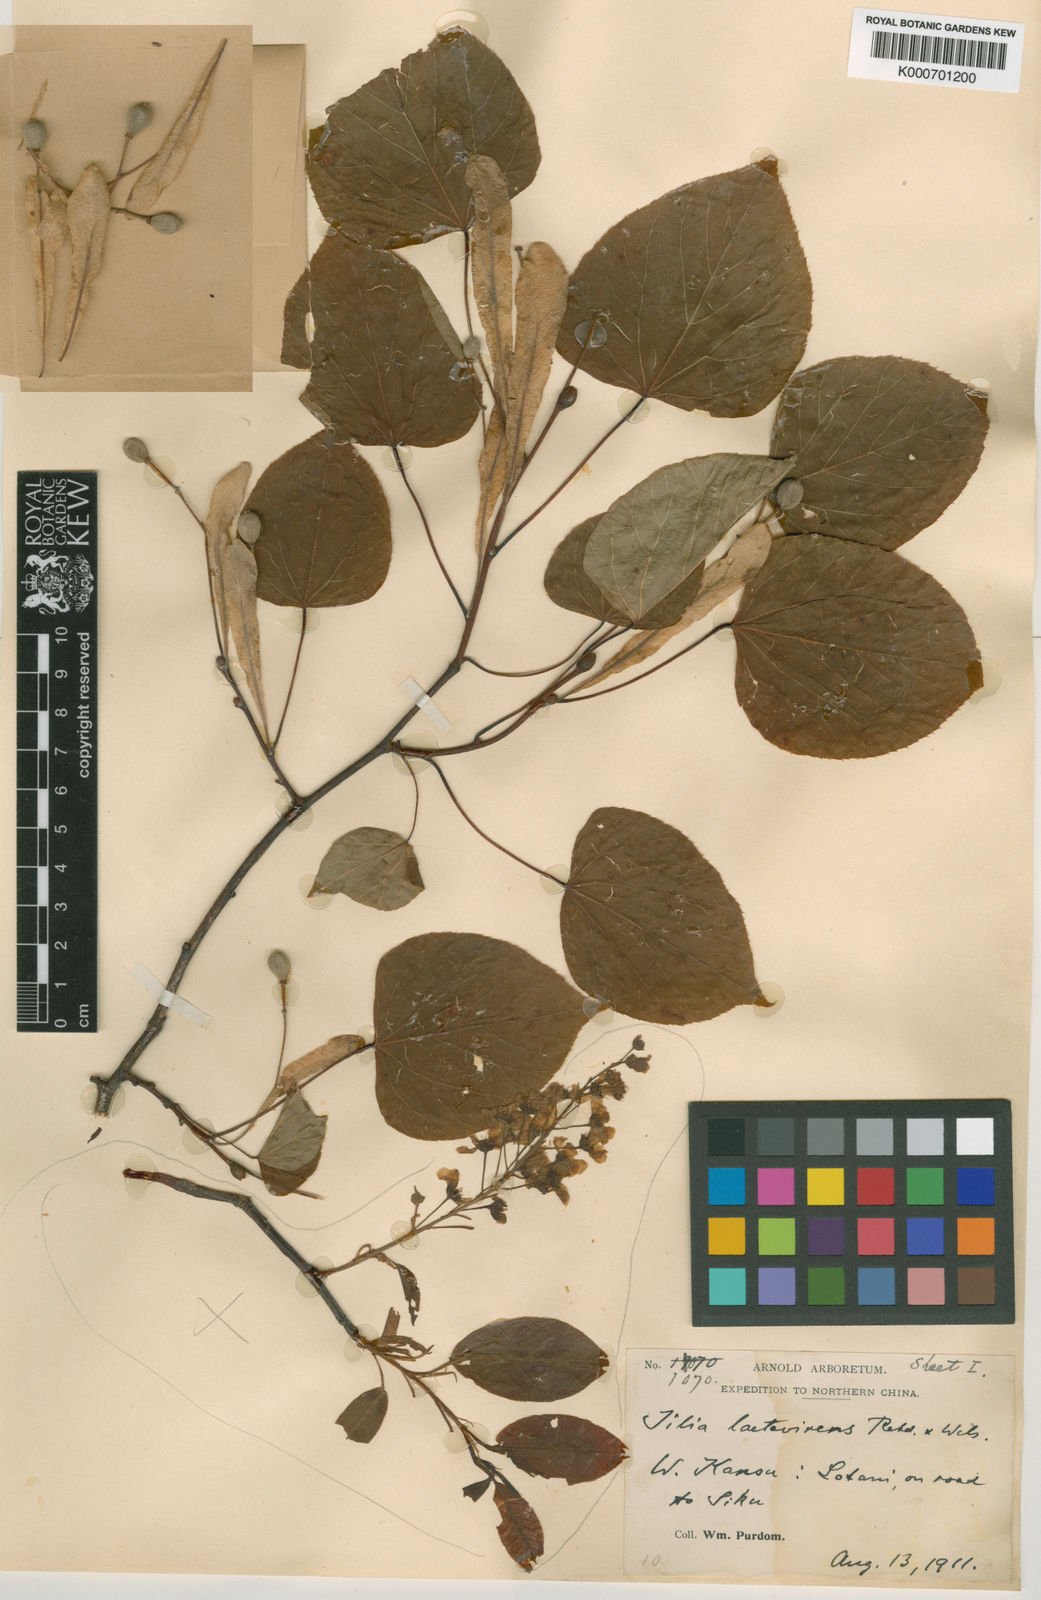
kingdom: Plantae
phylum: Tracheophyta
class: Magnoliopsida
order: Malvales
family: Malvaceae
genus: Tilia
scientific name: Tilia chinensis
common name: Chinese linden
